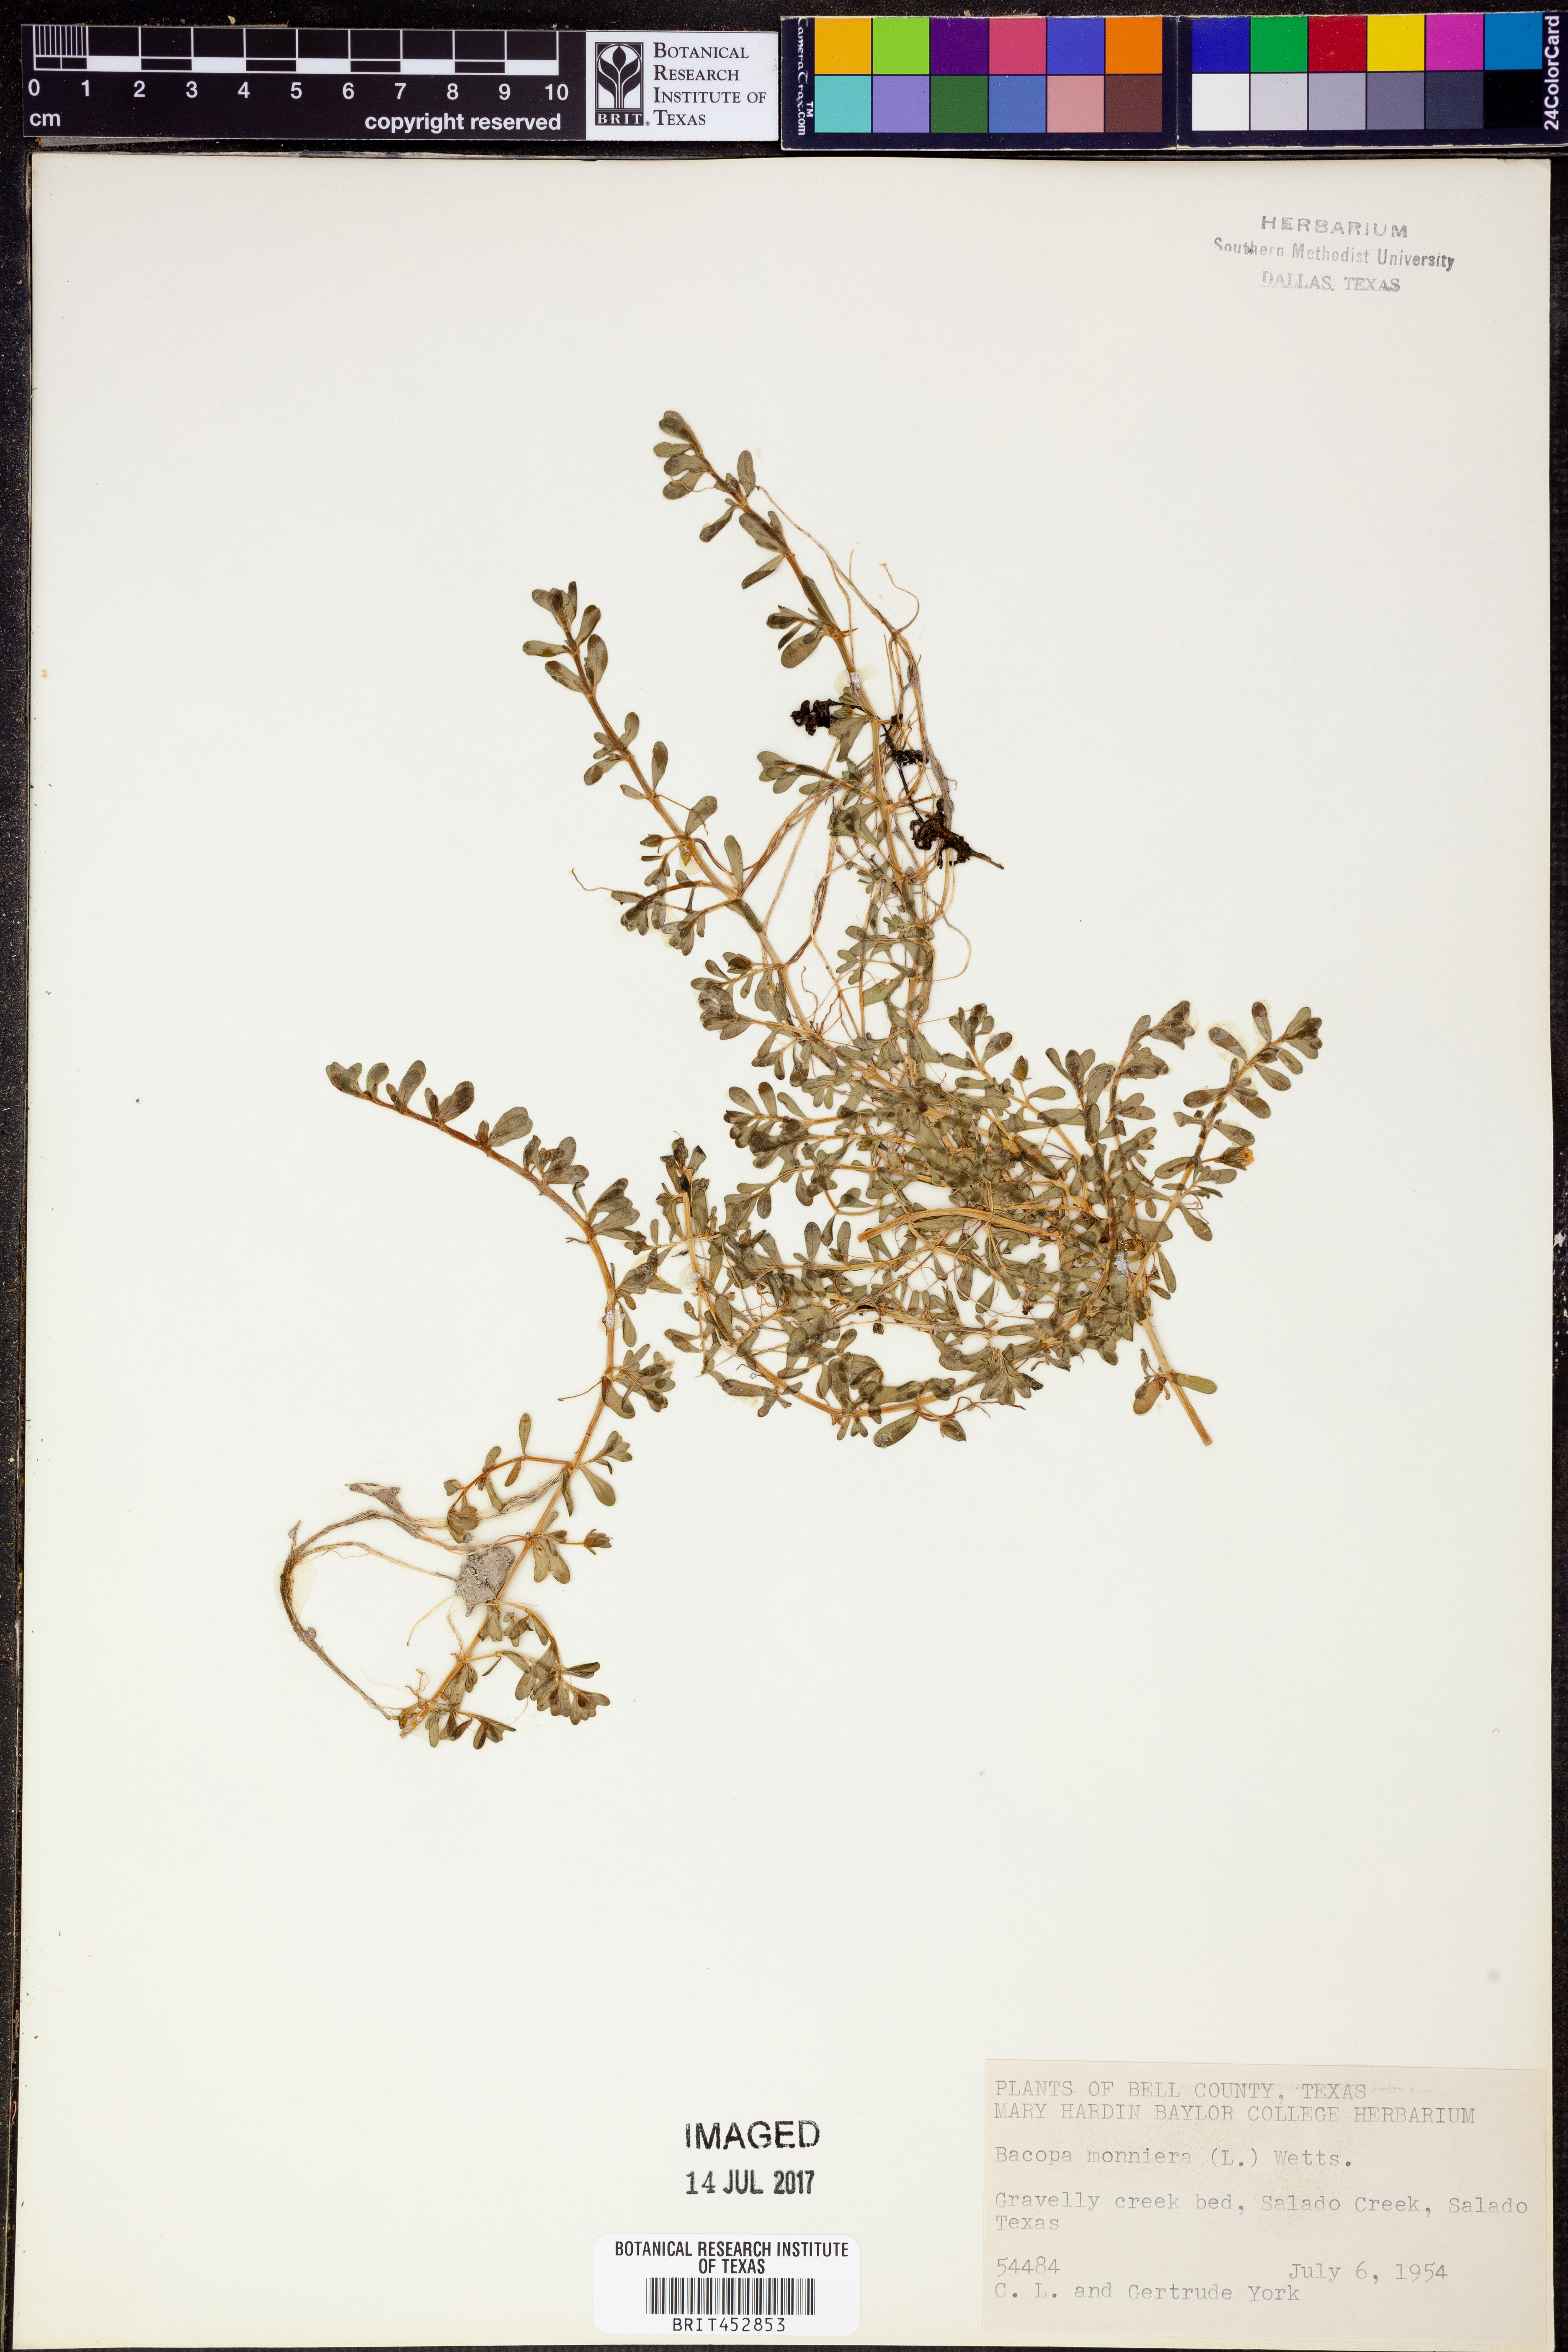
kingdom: Plantae
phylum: Tracheophyta
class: Magnoliopsida
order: Lamiales
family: Plantaginaceae
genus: Bacopa
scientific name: Bacopa monnieri
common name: Indian-pennywort
